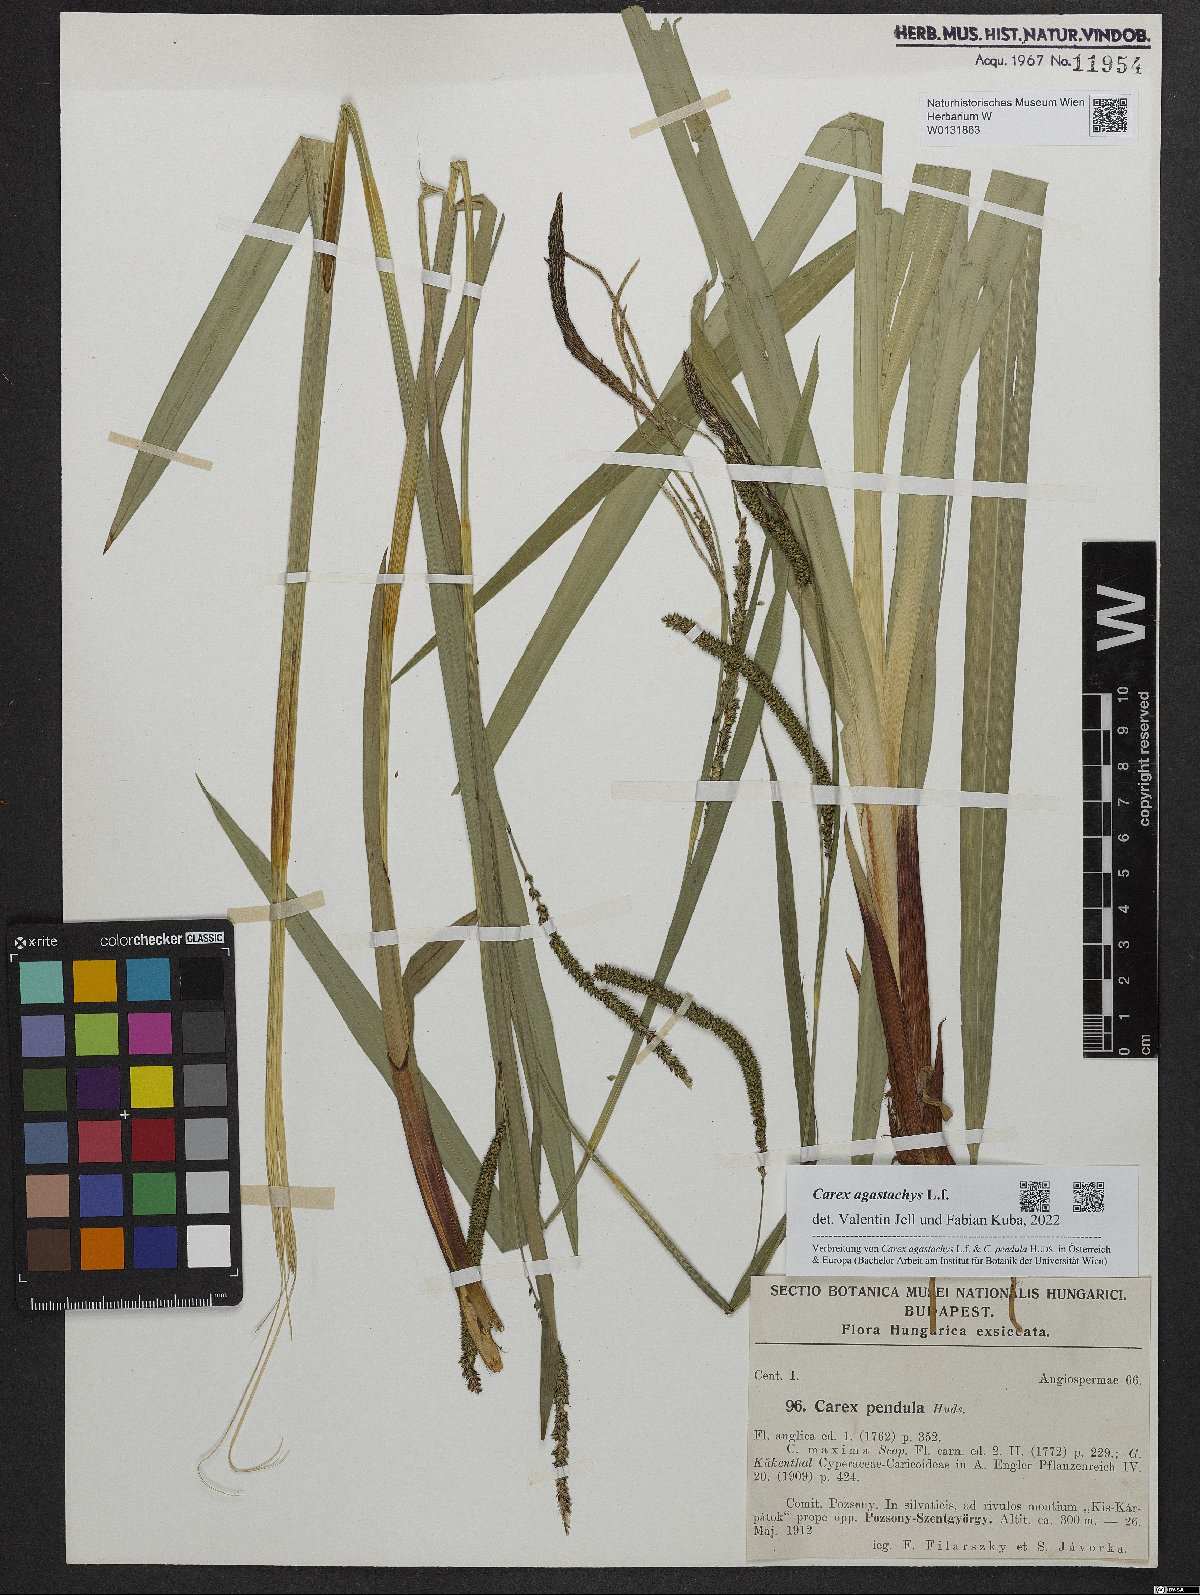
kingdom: Plantae
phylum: Tracheophyta
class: Liliopsida
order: Poales
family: Cyperaceae
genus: Carex
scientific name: Carex agastachys
